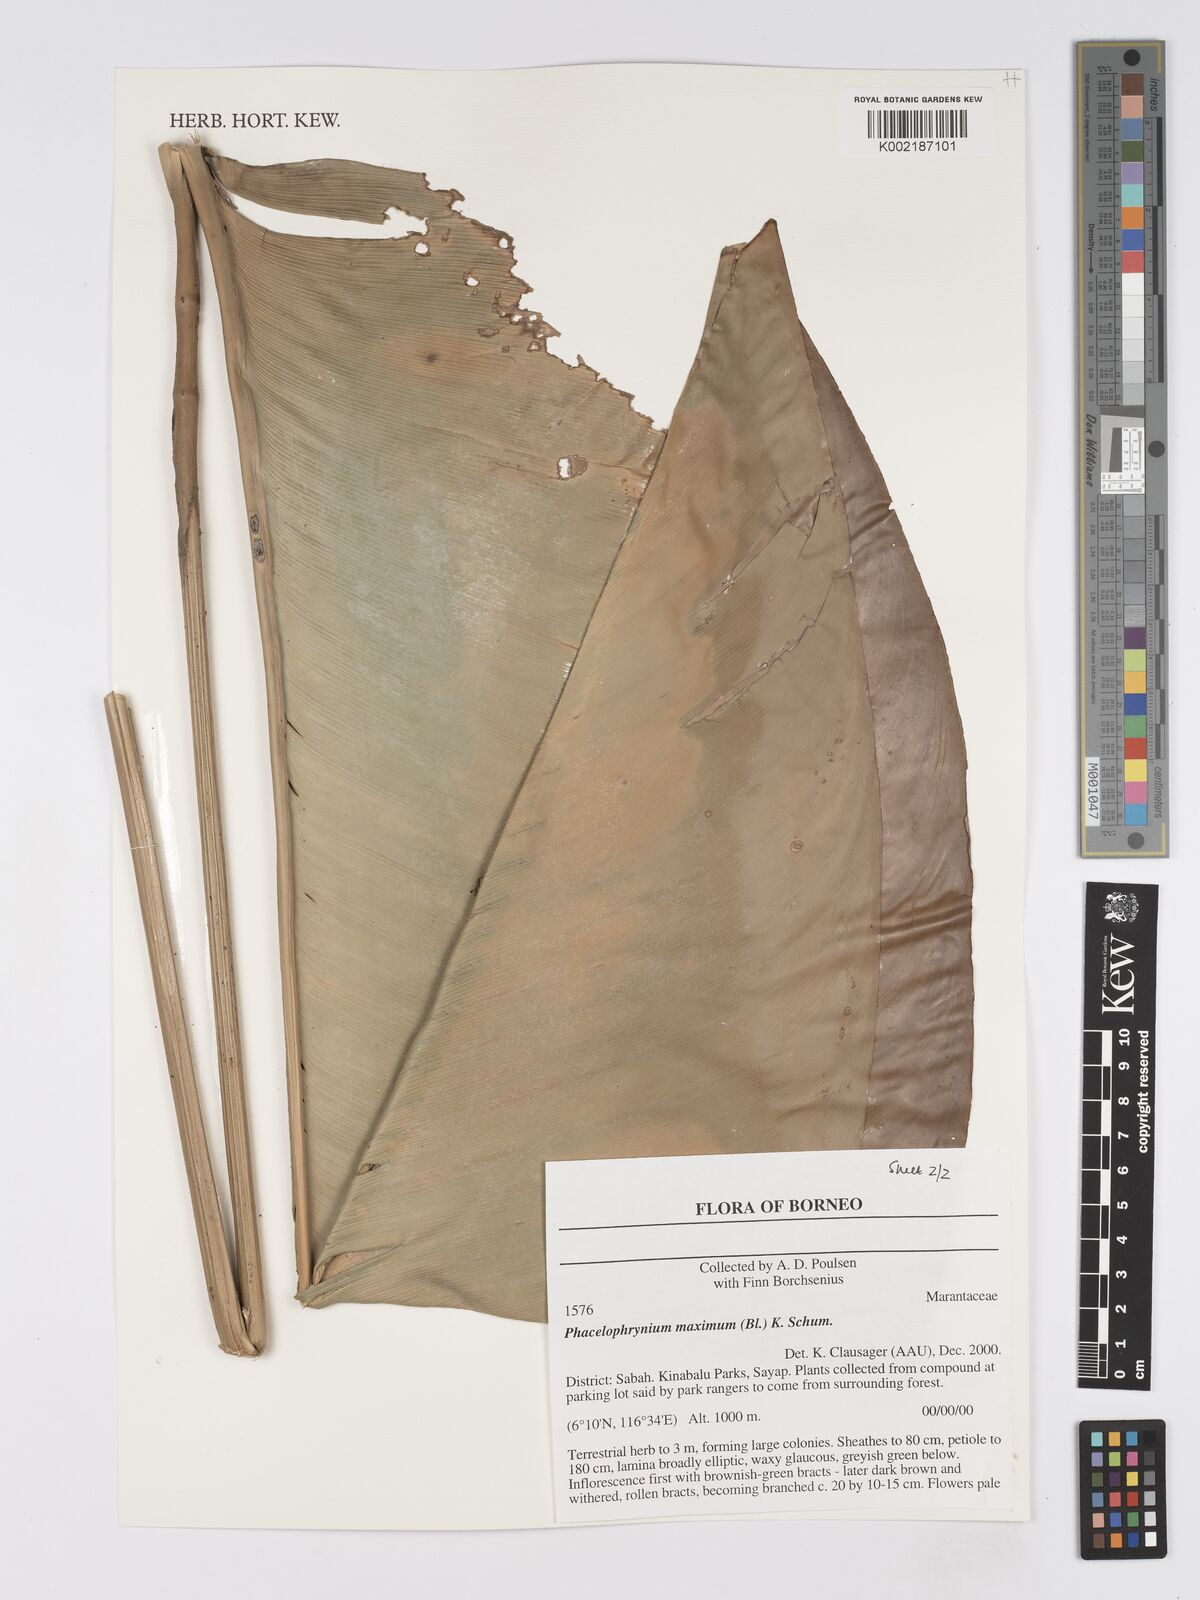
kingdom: Plantae
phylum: Tracheophyta
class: Liliopsida
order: Zingiberales
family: Marantaceae
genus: Phrynium
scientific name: Phrynium maximum
